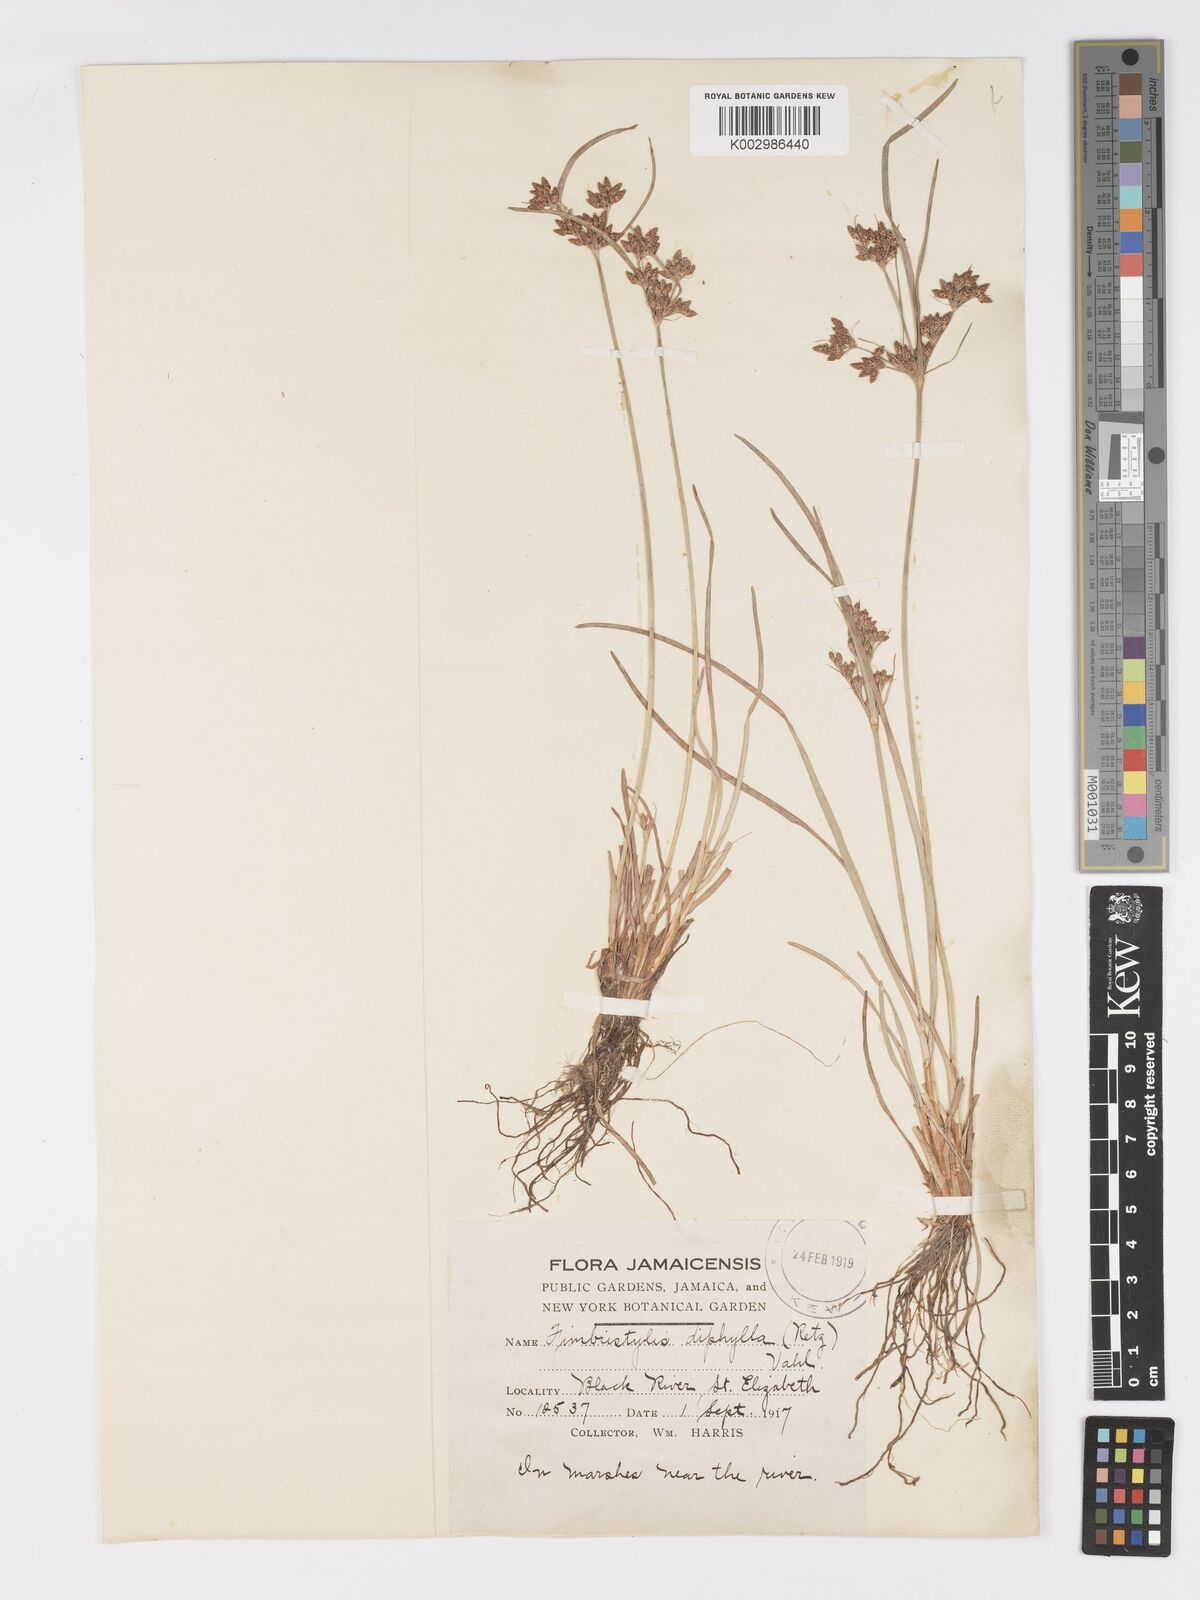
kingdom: Plantae
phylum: Tracheophyta
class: Liliopsida
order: Poales
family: Cyperaceae
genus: Fimbristylis
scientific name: Fimbristylis dichotoma
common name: Forked fimbry
